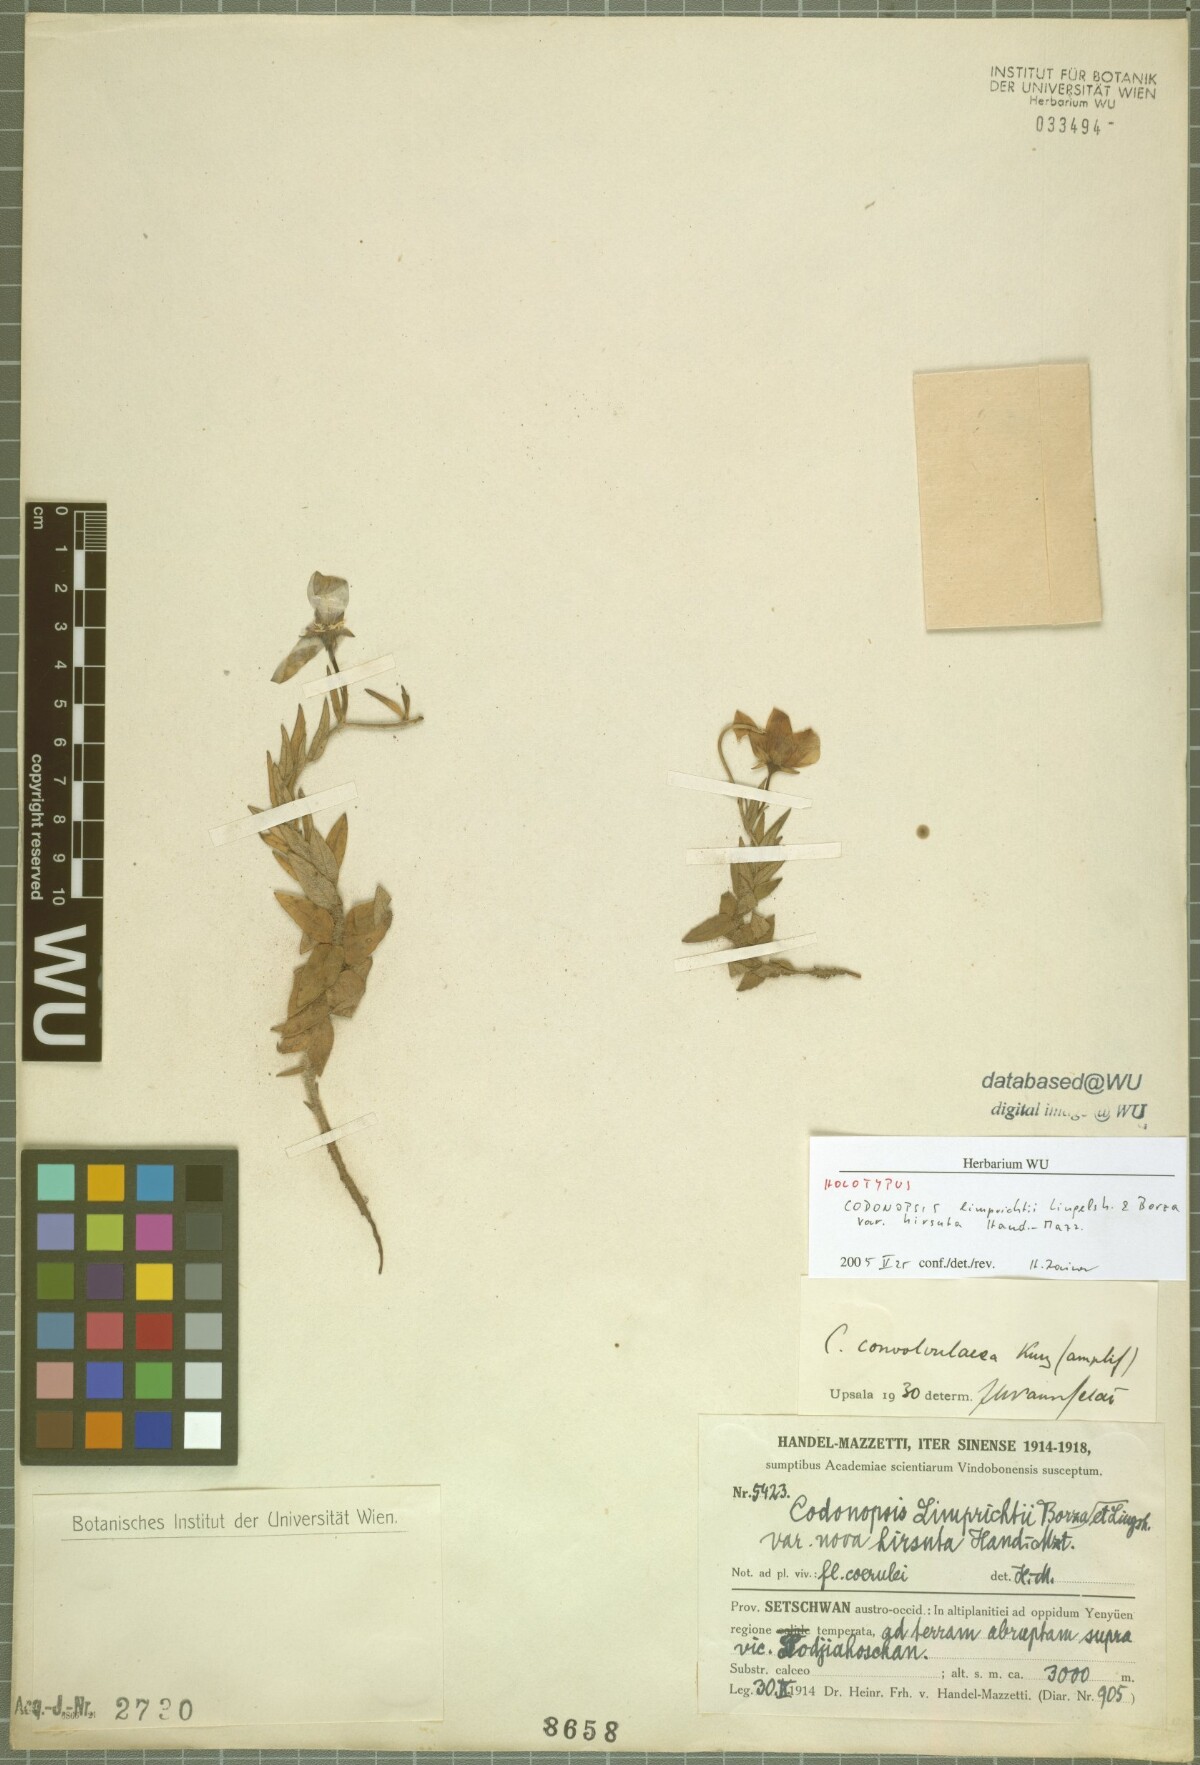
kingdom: Plantae
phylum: Tracheophyta
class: Magnoliopsida
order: Asterales
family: Campanulaceae
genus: Pseudocodon
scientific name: Pseudocodon hirsutus
